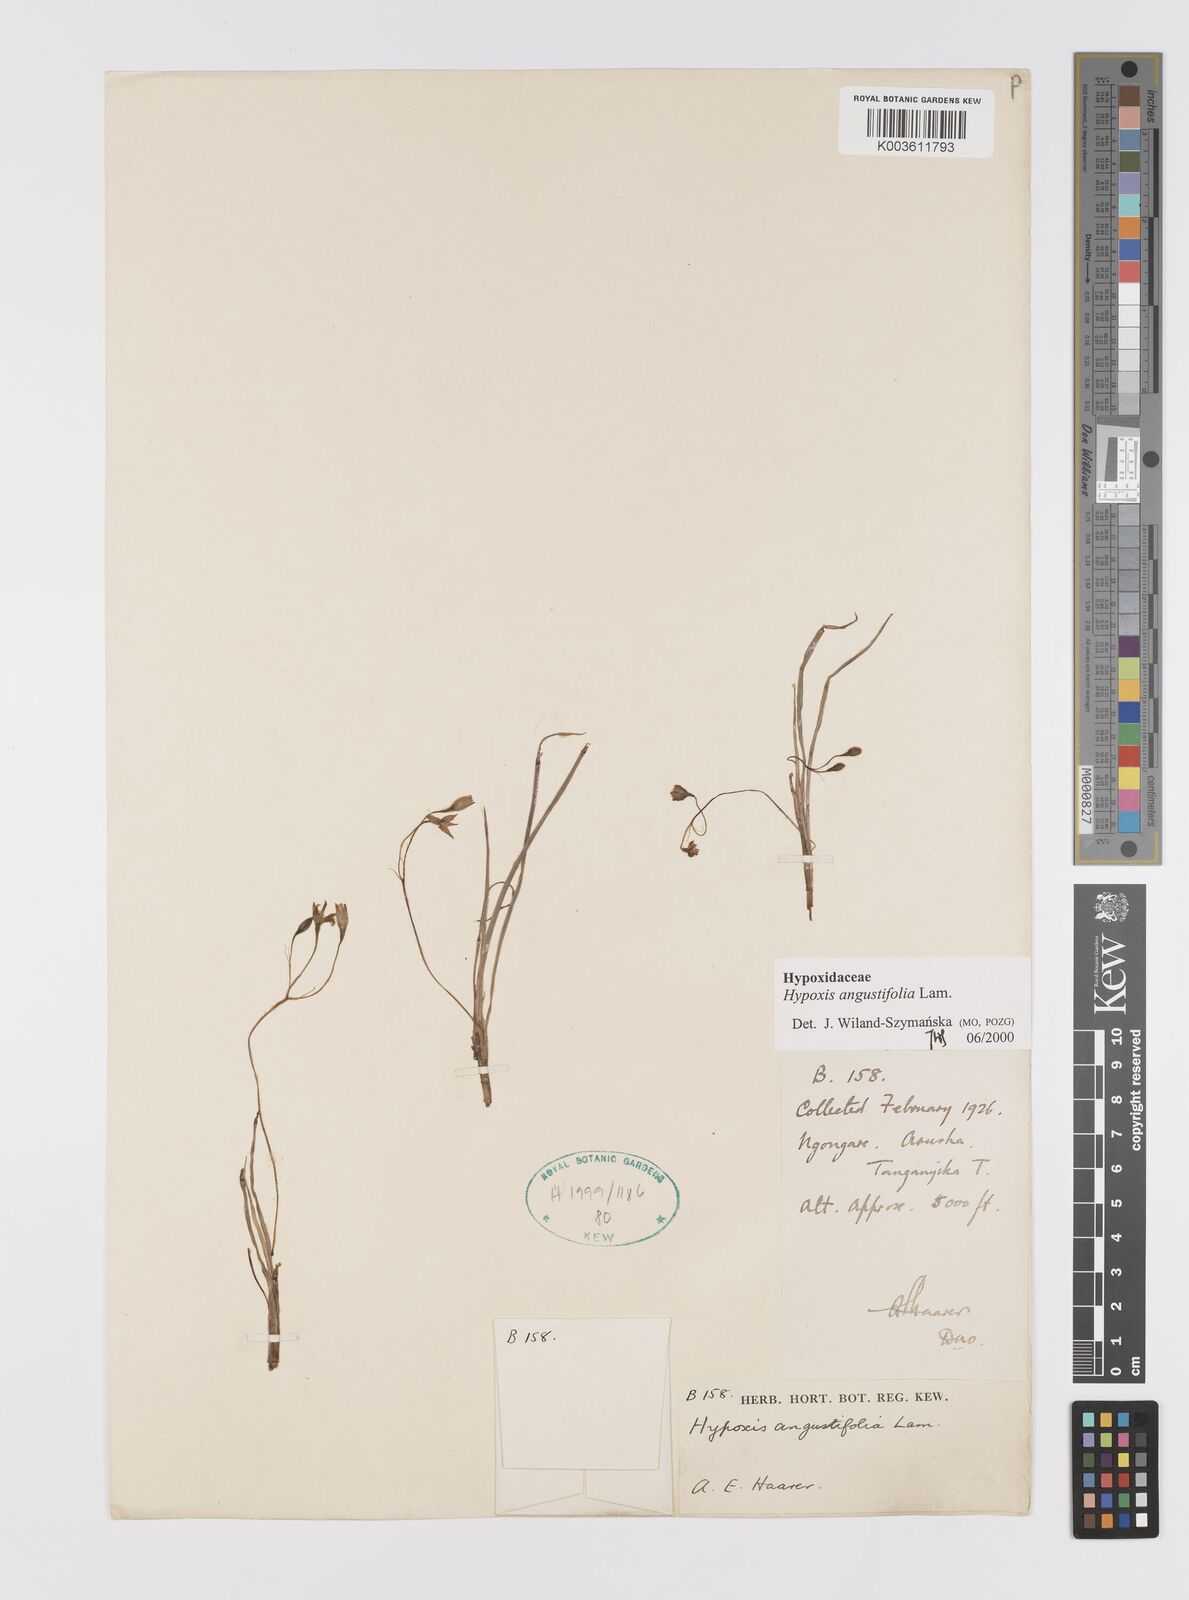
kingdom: Plantae
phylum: Tracheophyta
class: Liliopsida
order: Asparagales
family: Hypoxidaceae
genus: Hypoxis
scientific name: Hypoxis angustifolia
